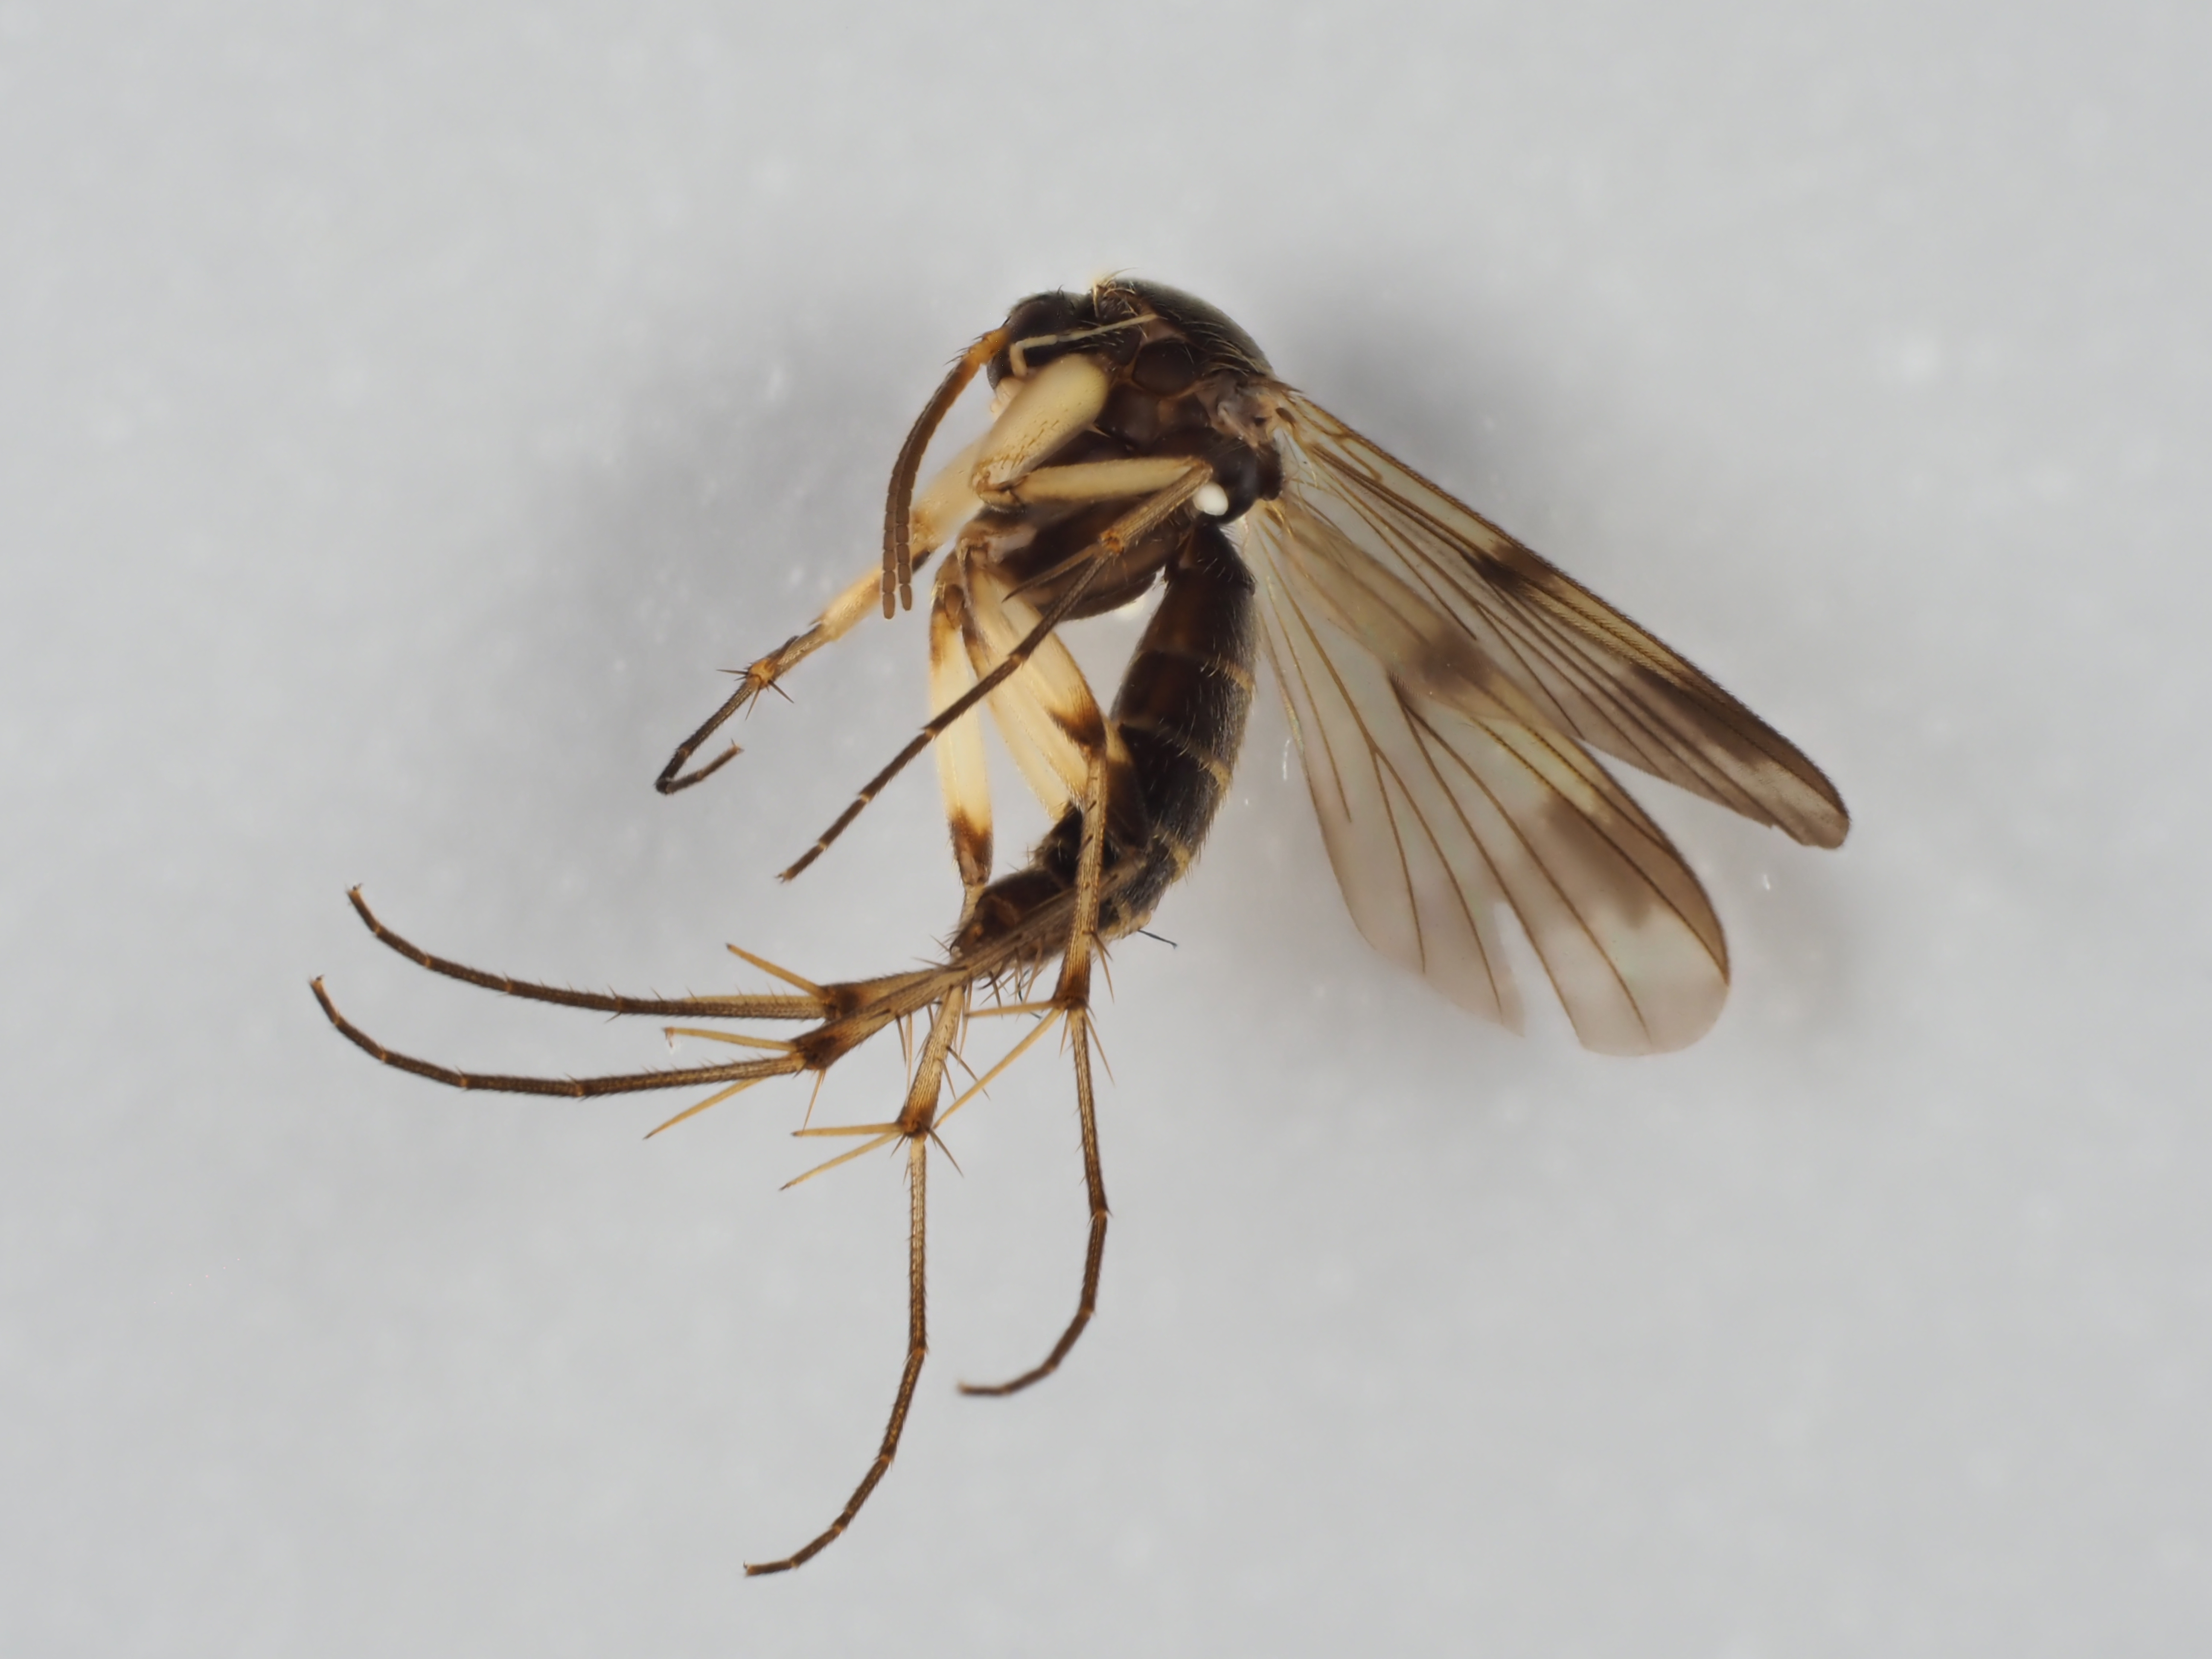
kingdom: Animalia
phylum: Arthropoda
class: Insecta
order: Diptera
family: Mycetophilidae
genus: Dynatosoma
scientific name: Dynatosoma reciprocum
